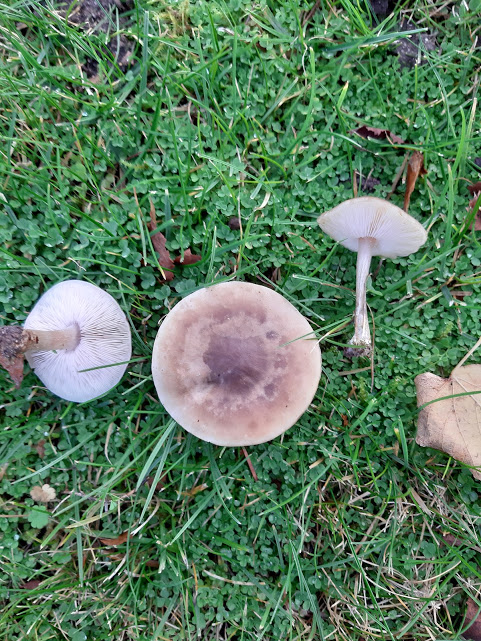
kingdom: Fungi
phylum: Basidiomycota
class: Agaricomycetes
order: Agaricales
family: Tricholomataceae
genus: Lepista
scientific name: Lepista personata
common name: bleg hekseringshat
